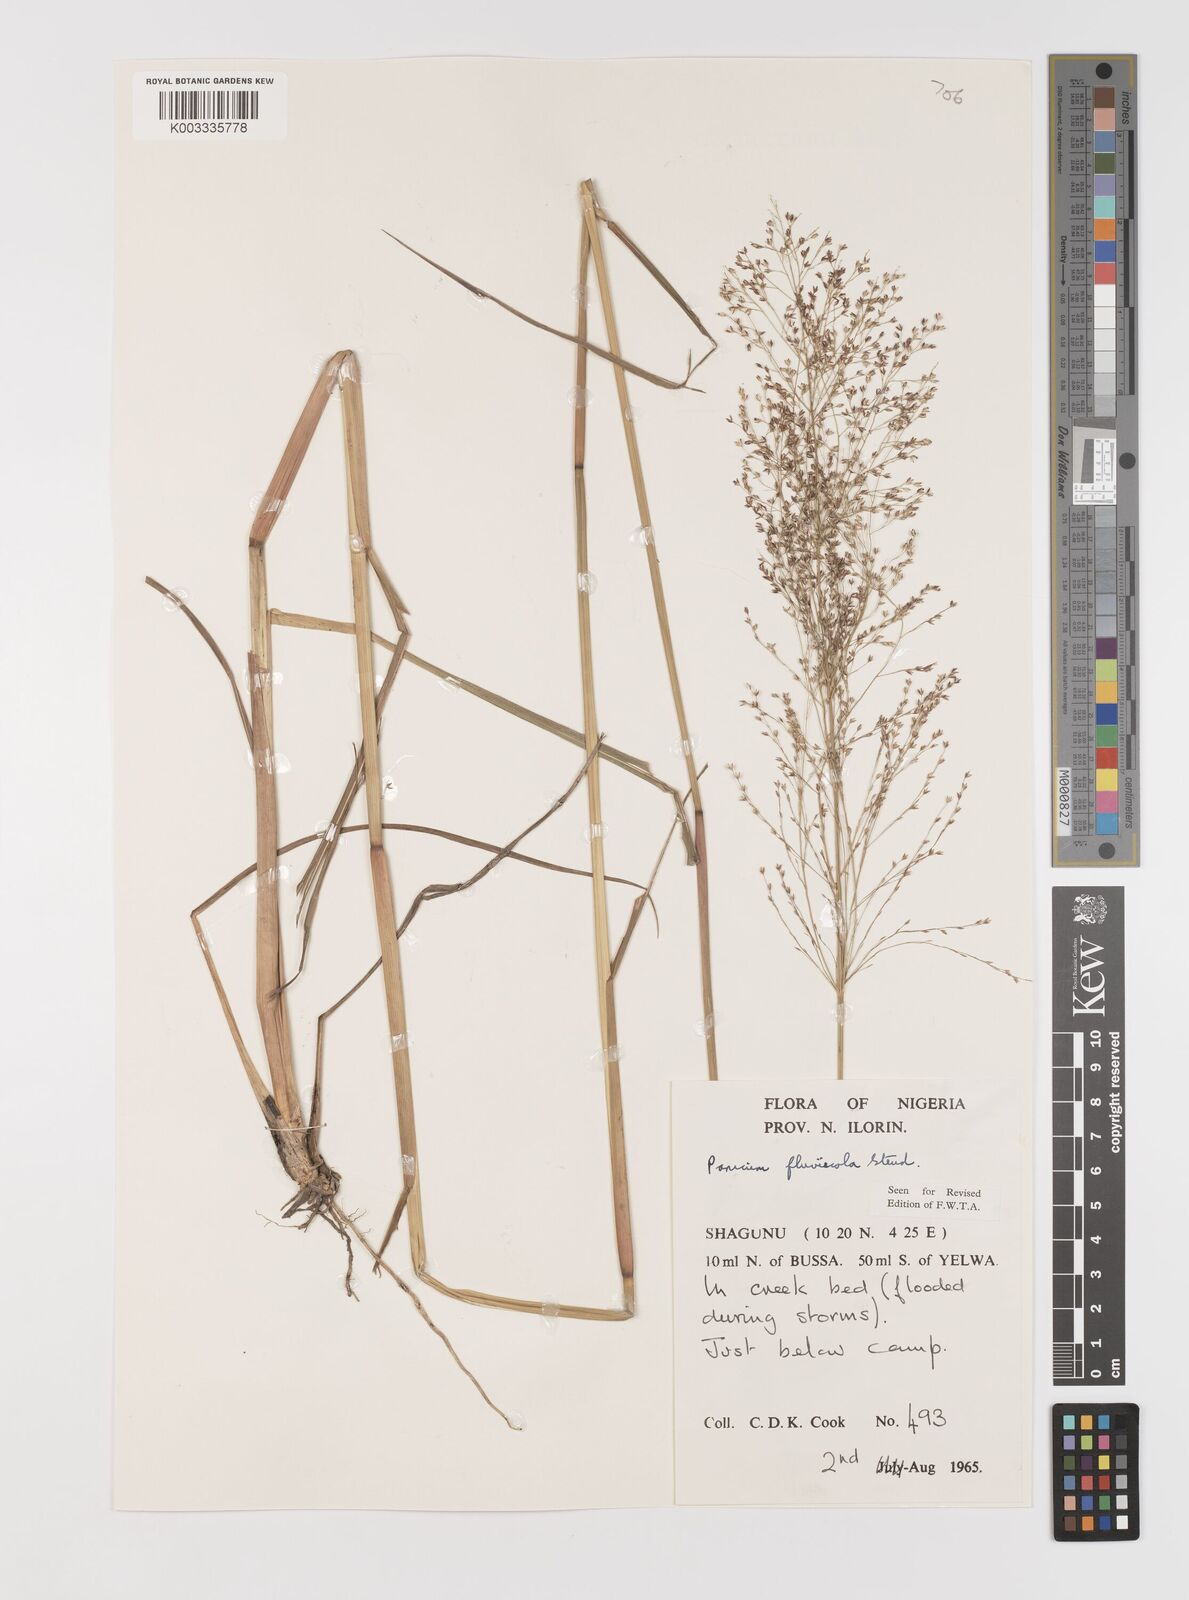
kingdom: Plantae
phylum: Tracheophyta
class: Liliopsida
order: Poales
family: Poaceae
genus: Panicum
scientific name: Panicum fluviicola
